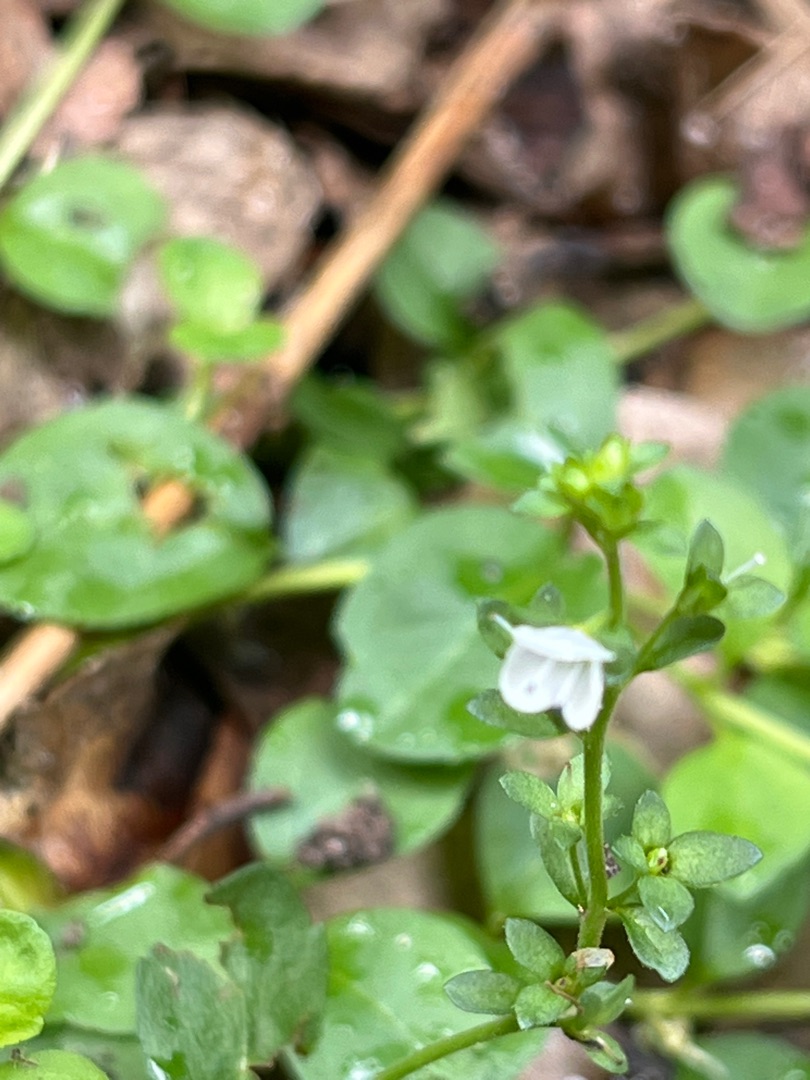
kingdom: Plantae
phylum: Tracheophyta
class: Magnoliopsida
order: Lamiales
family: Plantaginaceae
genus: Veronica
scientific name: Veronica serpyllifolia
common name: Glat ærenpris
